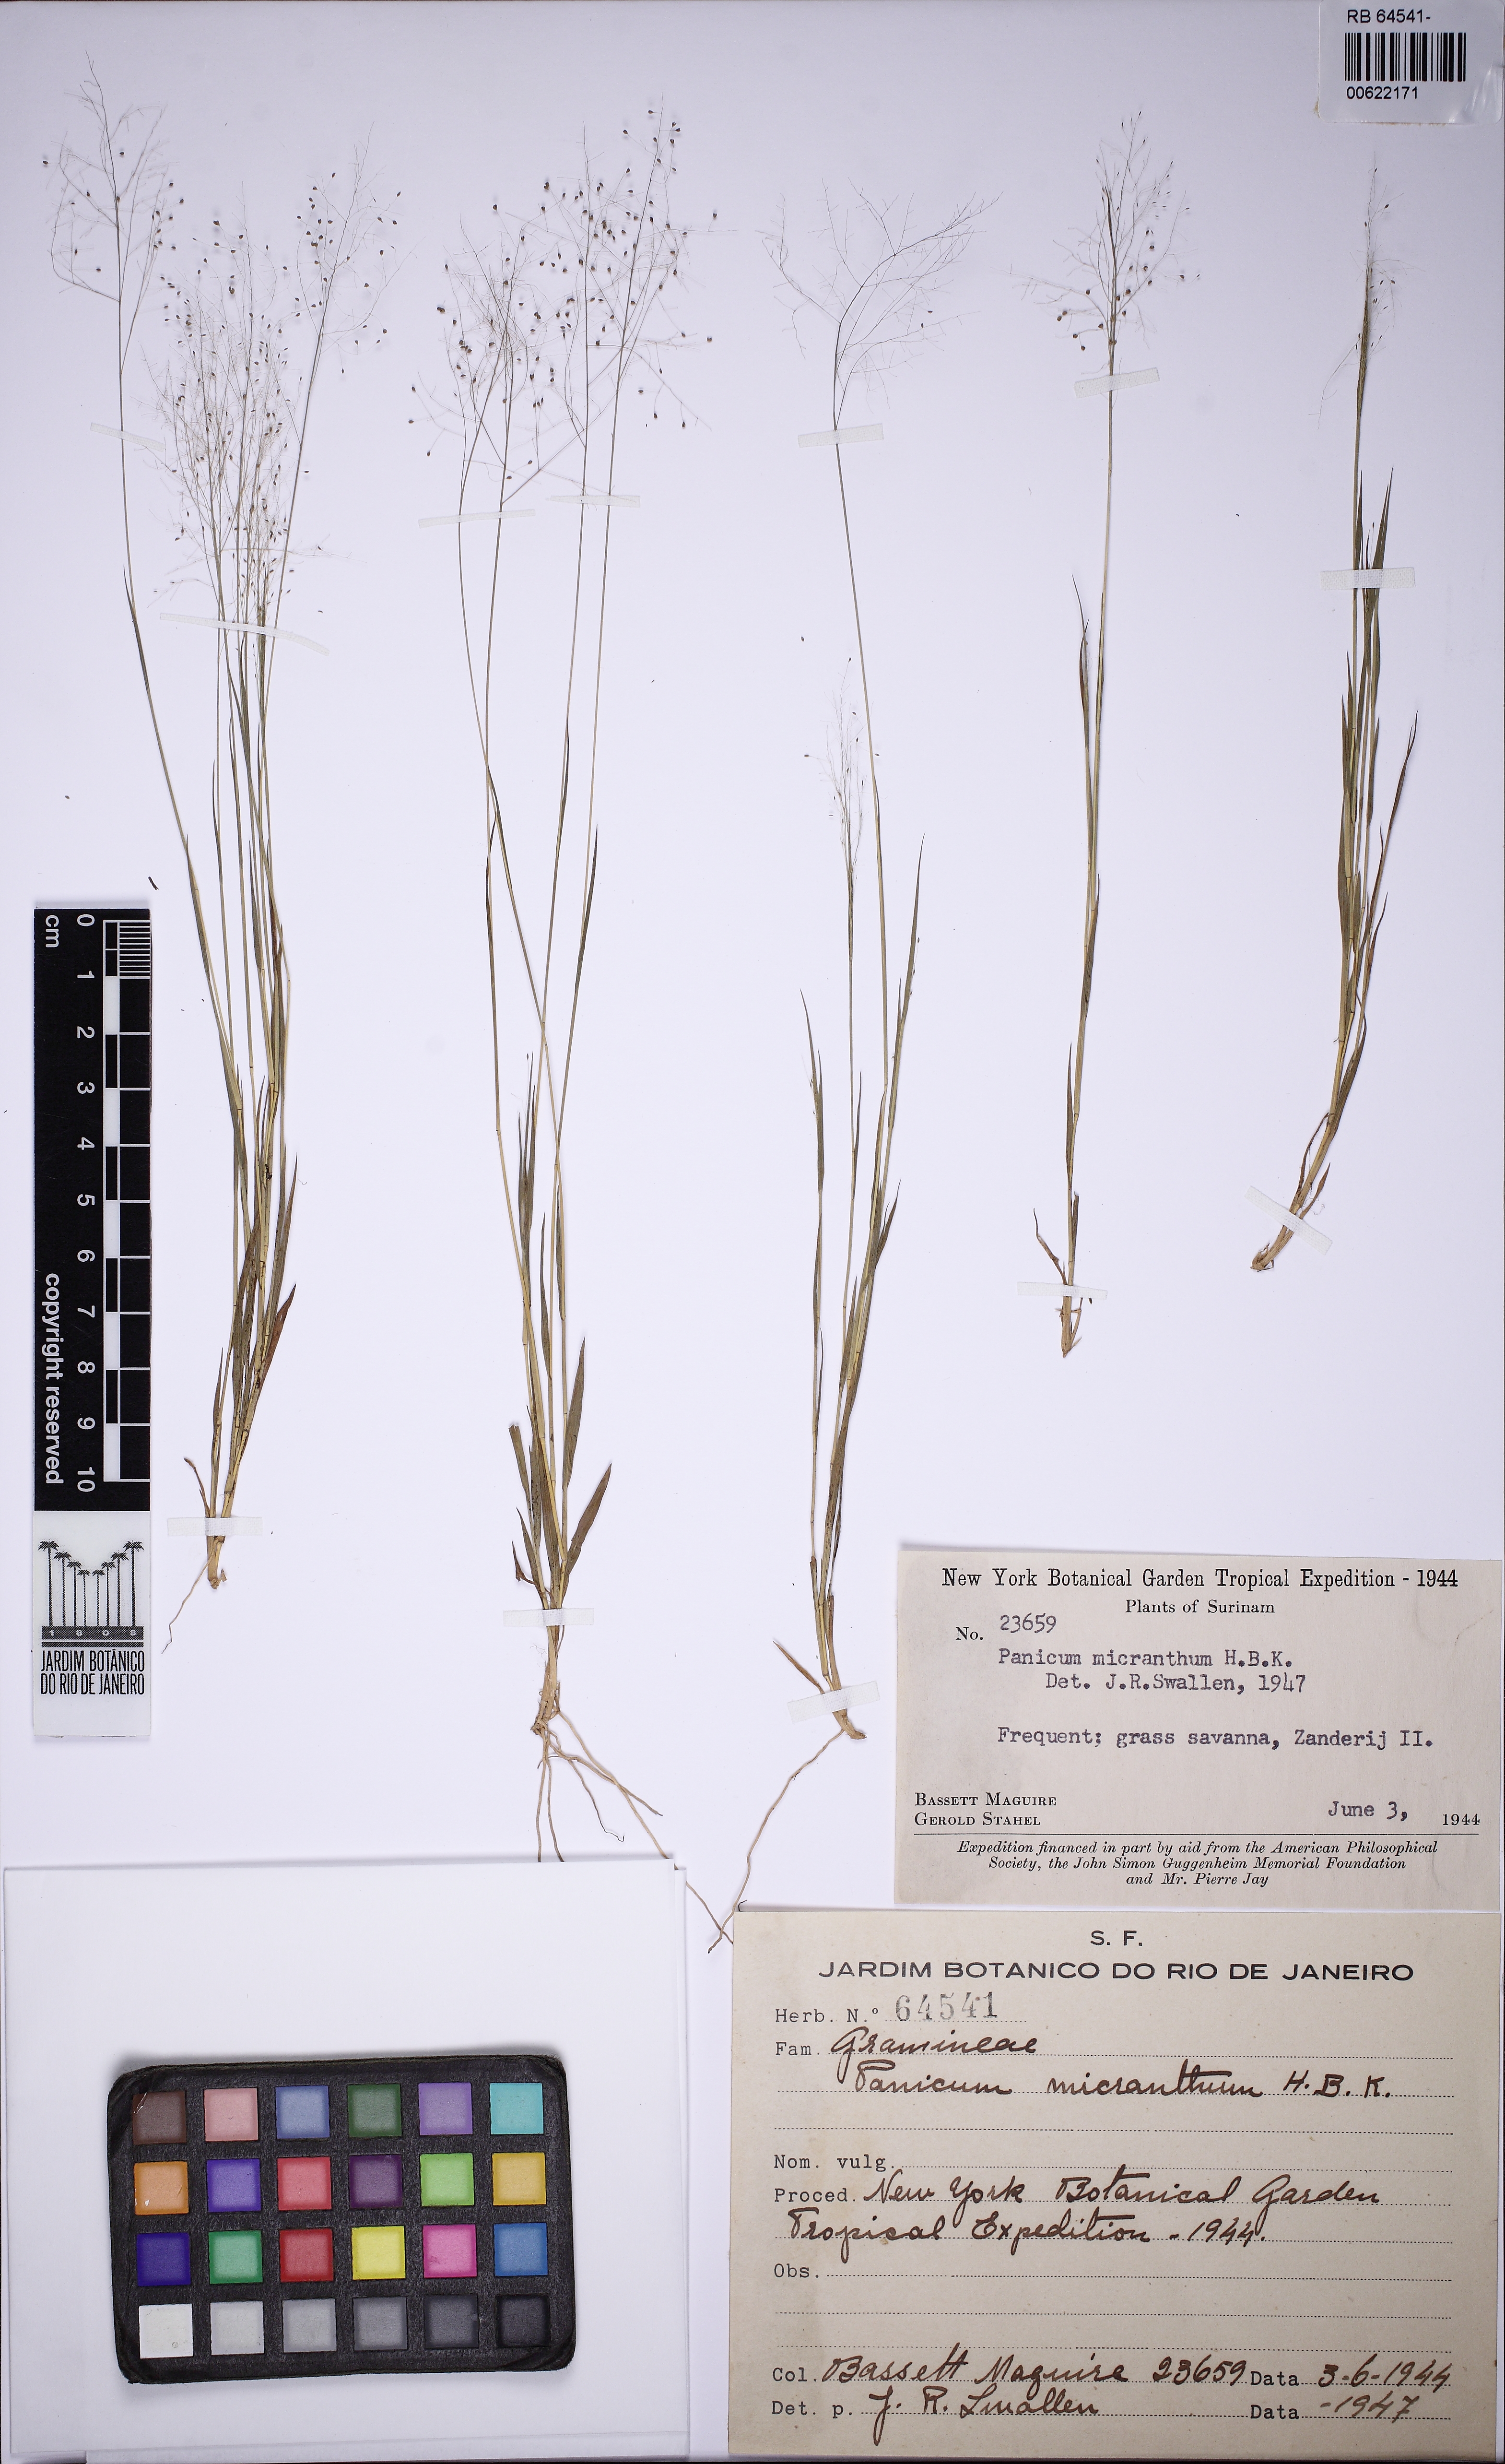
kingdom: Plantae
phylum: Tracheophyta
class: Liliopsida
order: Poales
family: Poaceae
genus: Panicum
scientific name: Panicum cervicatum
